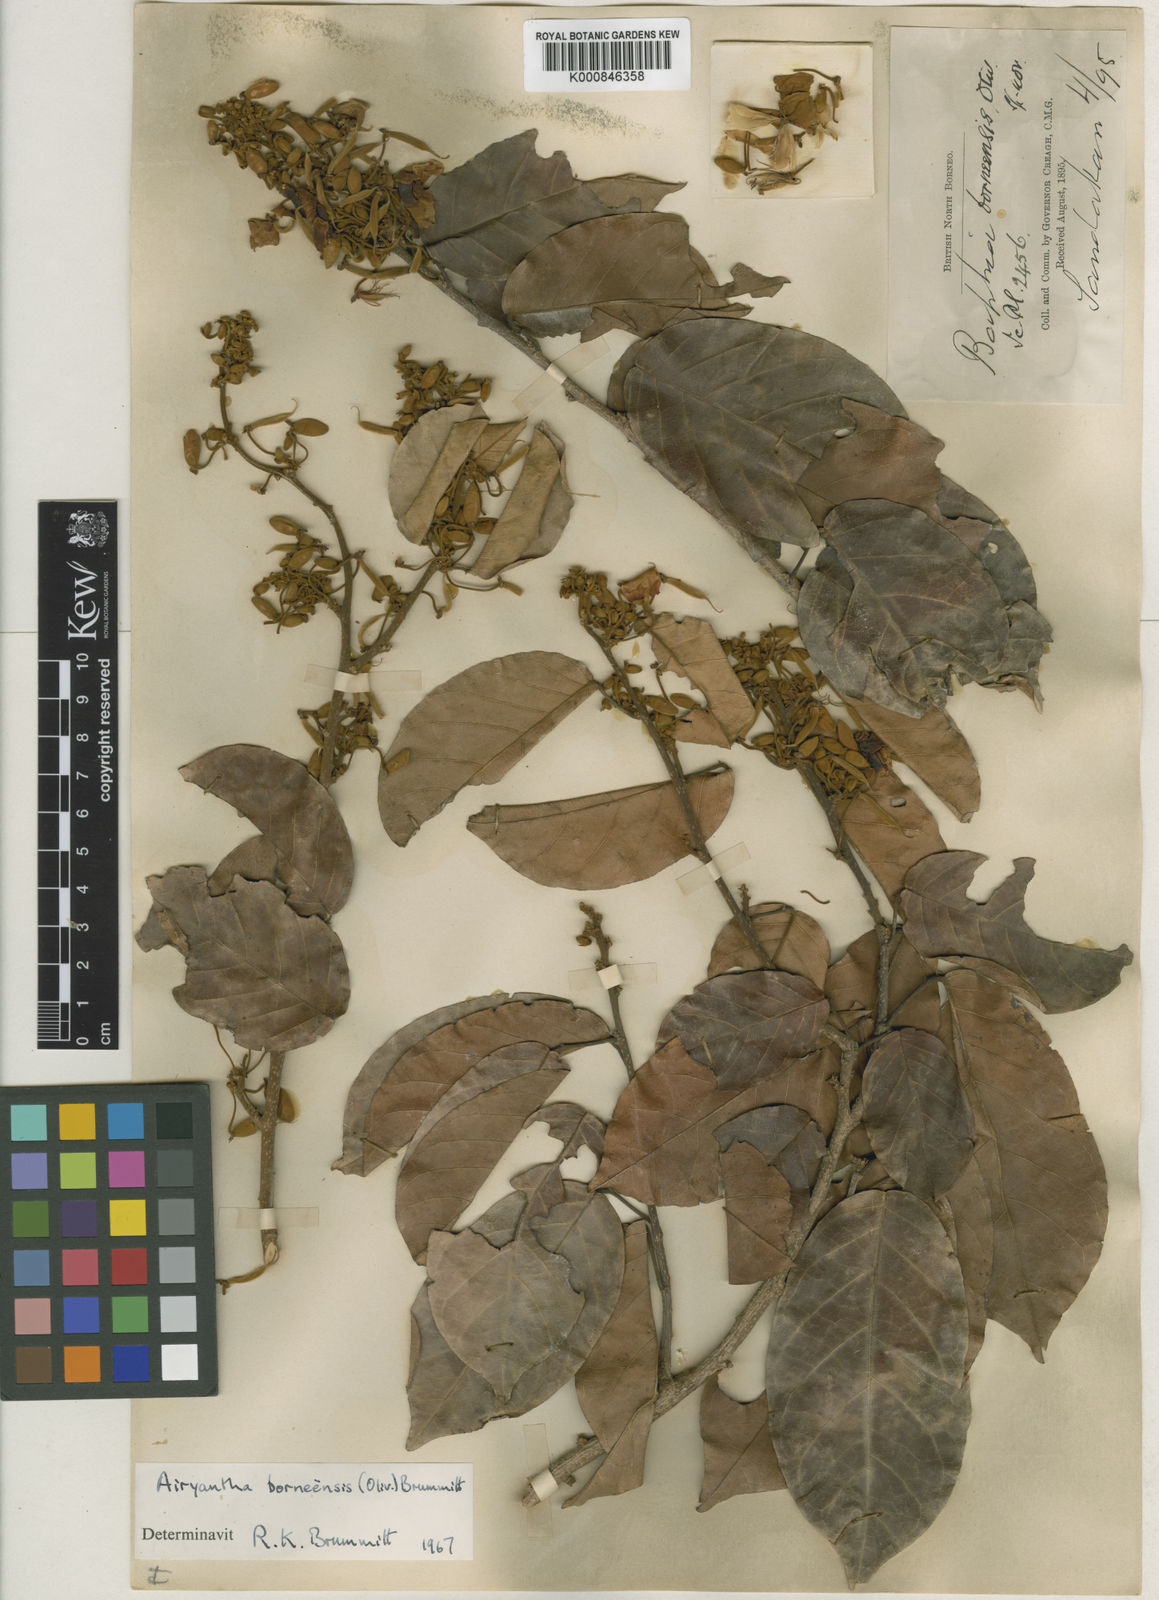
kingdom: Plantae
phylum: Tracheophyta
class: Magnoliopsida
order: Fabales
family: Fabaceae
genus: Airyantha
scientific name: Airyantha borneensis
